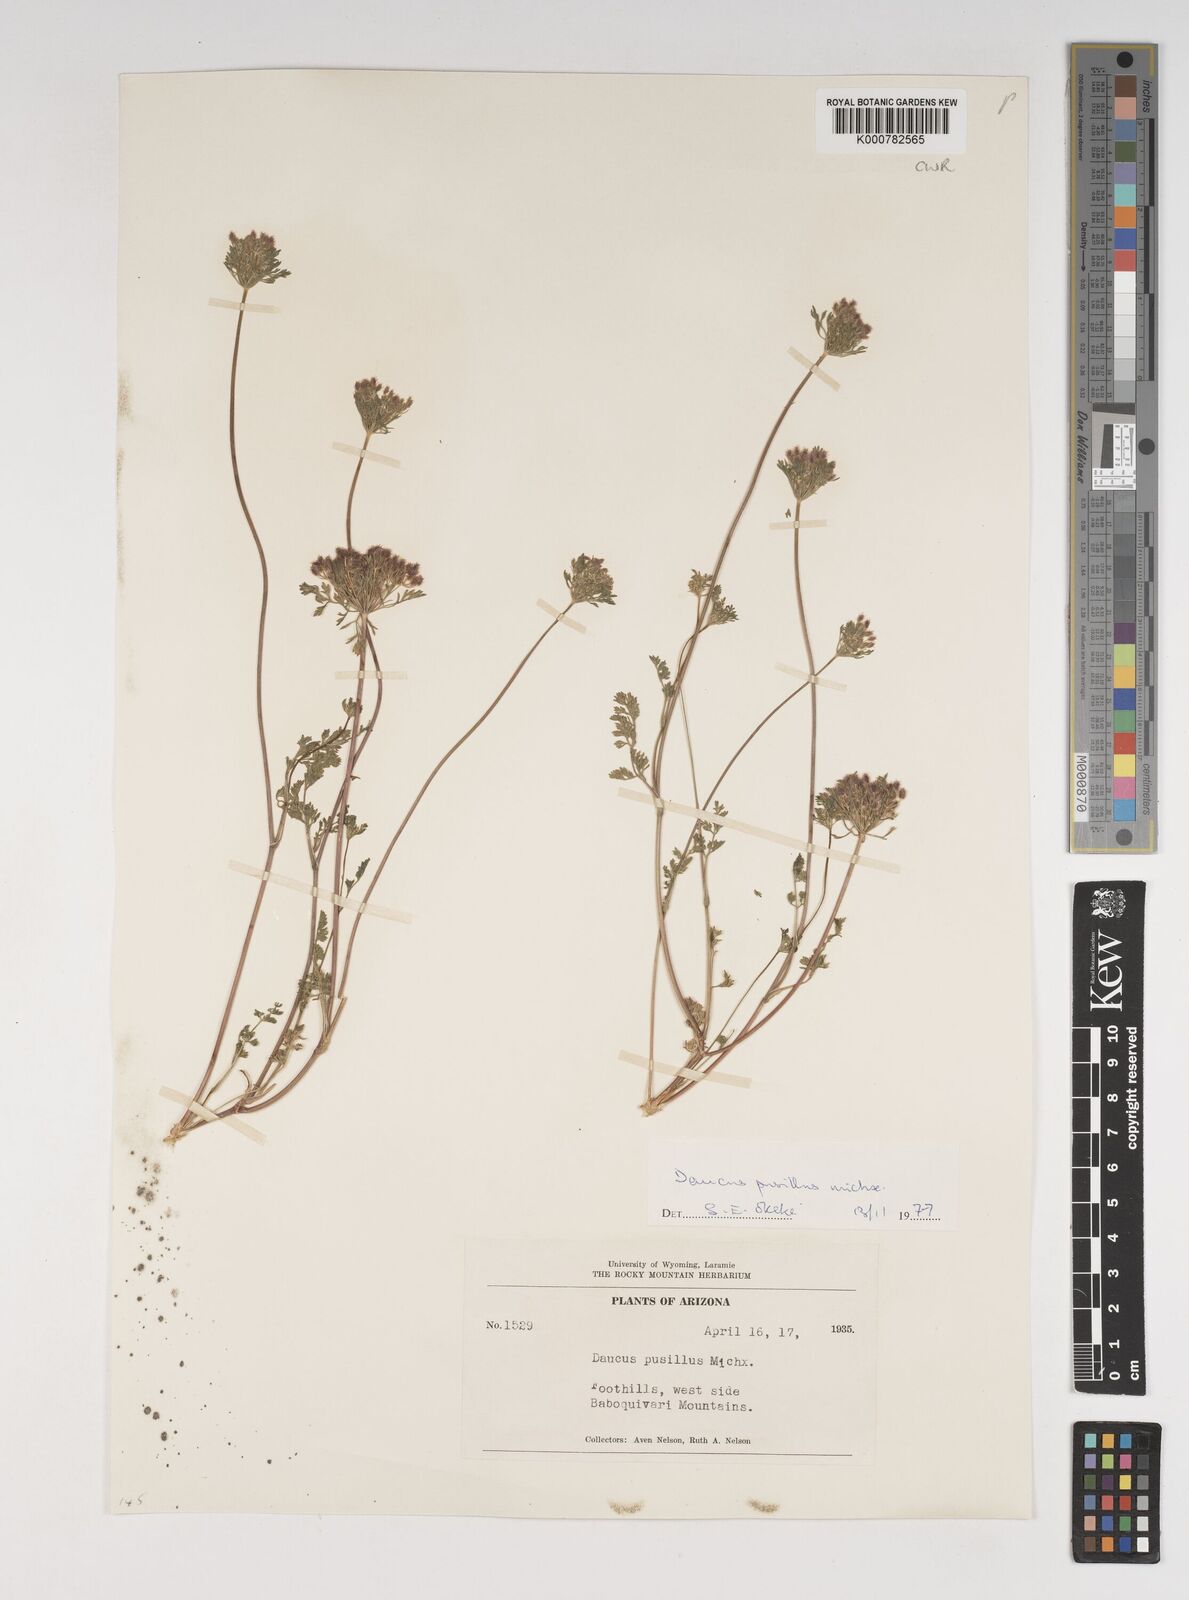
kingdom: Plantae
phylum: Tracheophyta
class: Magnoliopsida
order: Apiales
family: Apiaceae
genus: Daucus
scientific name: Daucus pusillus
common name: Southwest wild carrot
